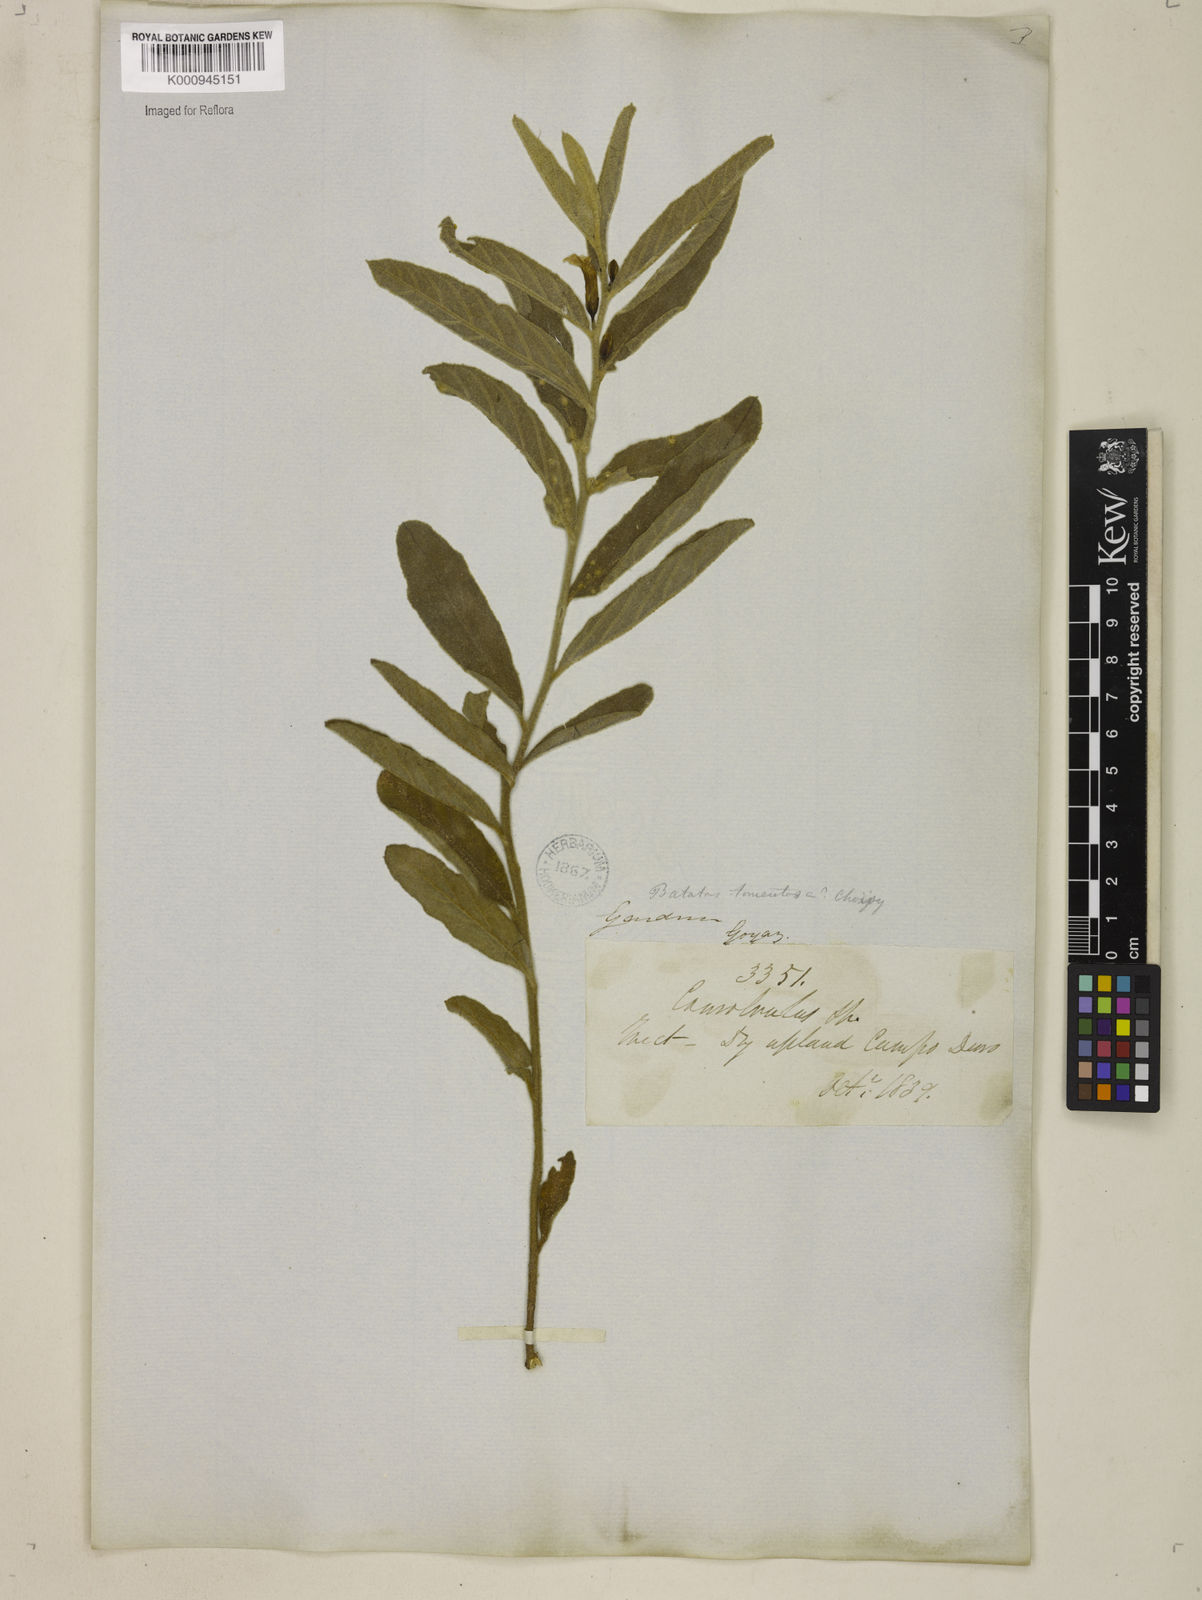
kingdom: Plantae
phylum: Tracheophyta
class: Magnoliopsida
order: Solanales
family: Convolvulaceae
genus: Distimake
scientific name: Distimake tomentosus
